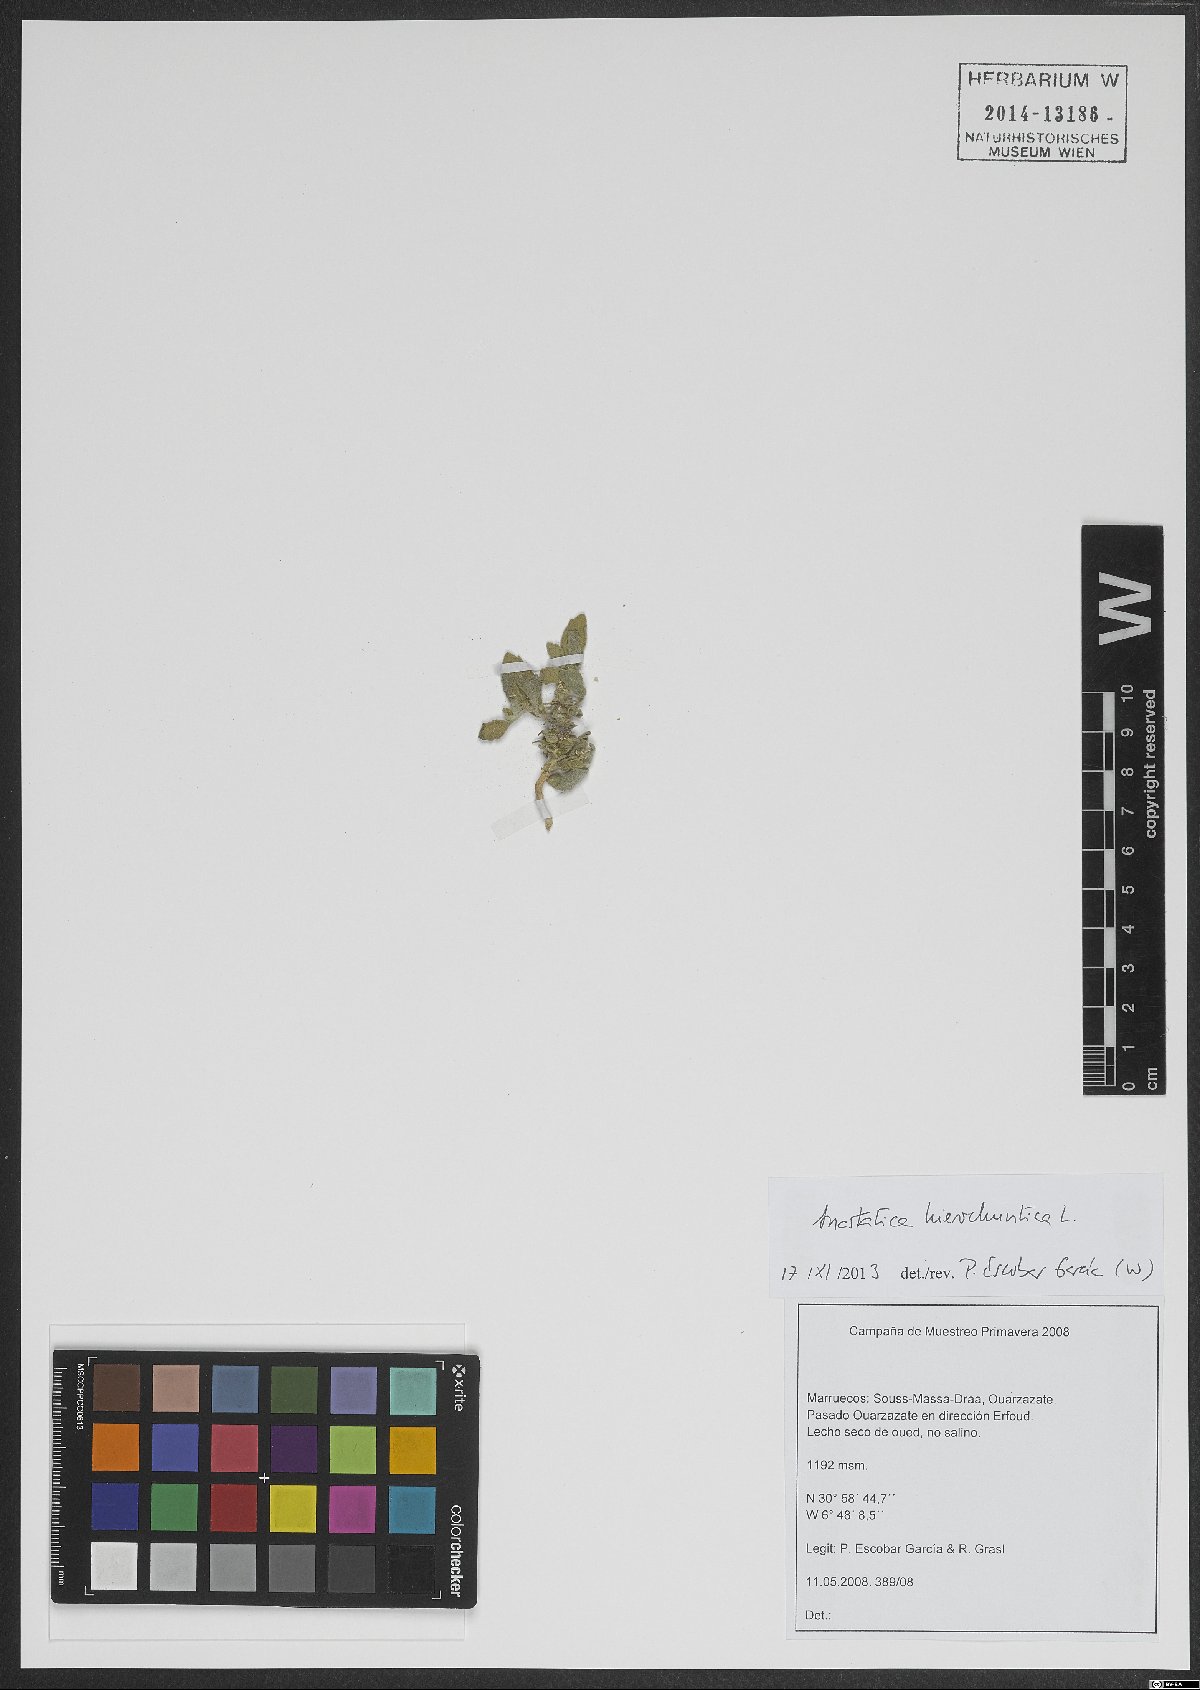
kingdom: Plantae
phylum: Tracheophyta
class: Magnoliopsida
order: Brassicales
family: Brassicaceae
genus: Anastatica
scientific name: Anastatica hierochuntica
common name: Rose-of-jericho
